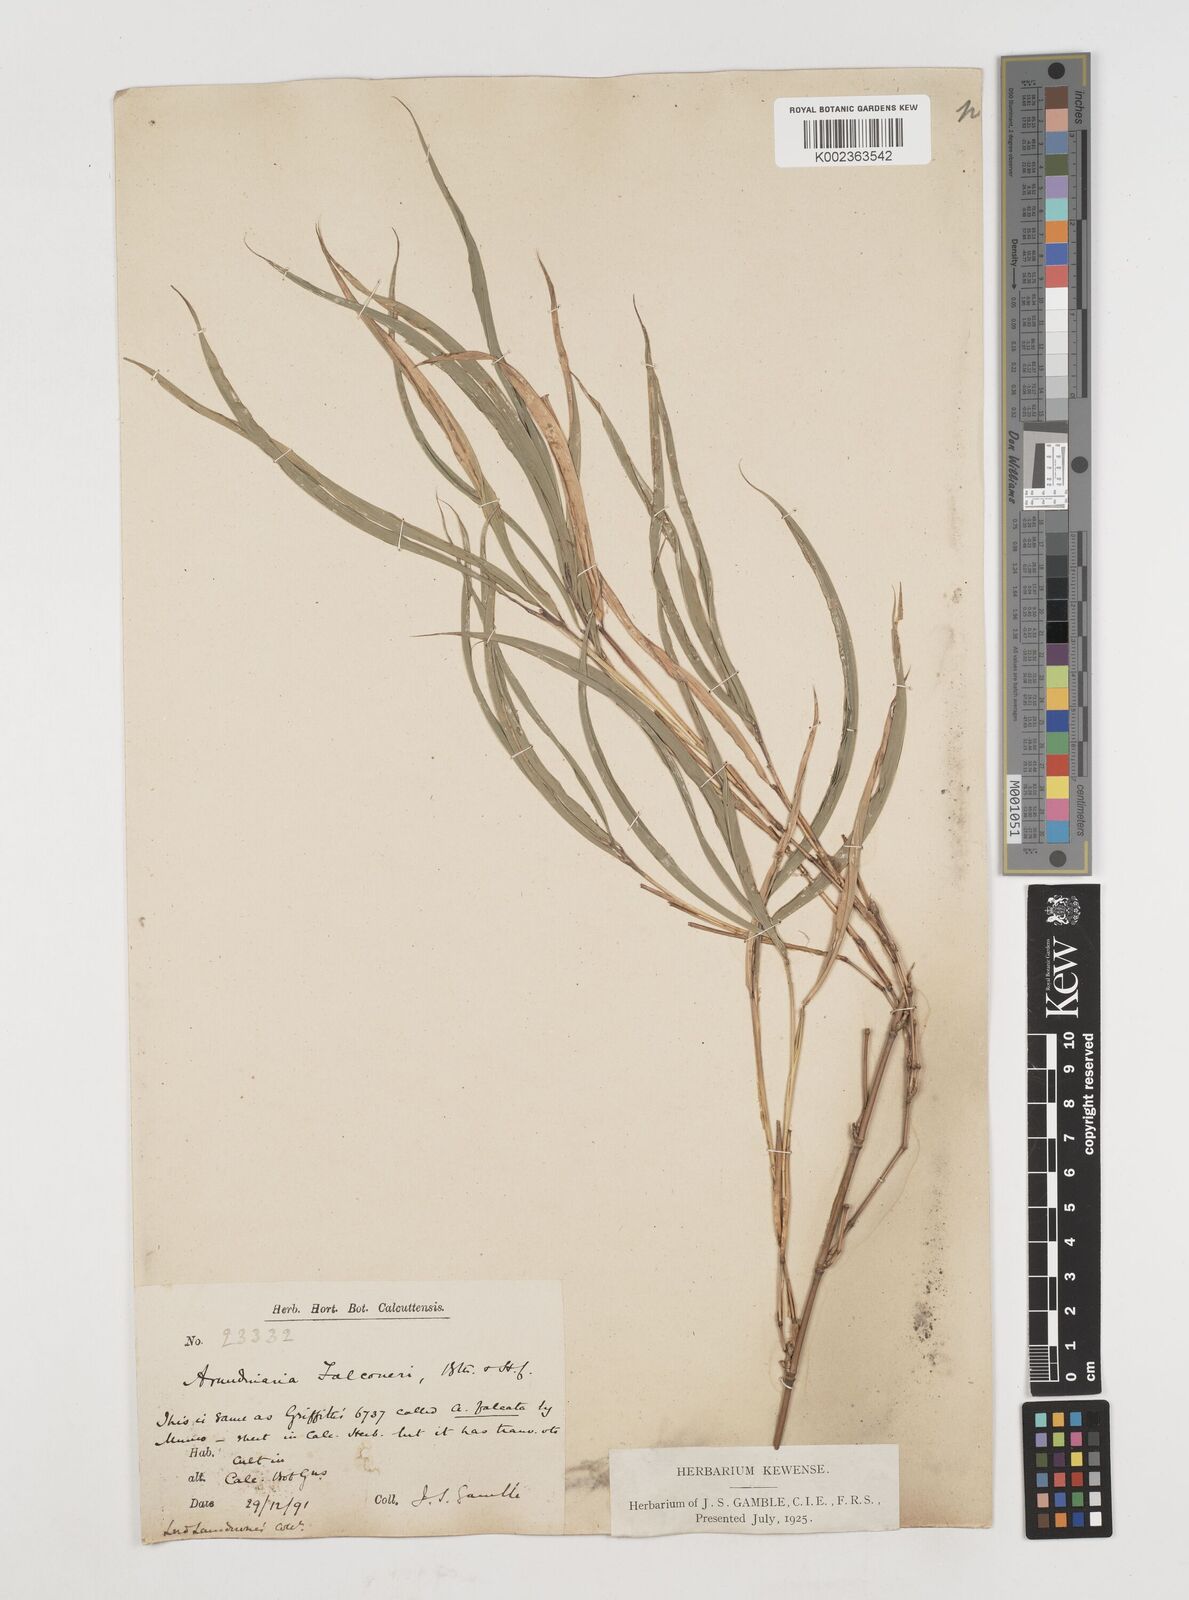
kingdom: Plantae
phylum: Tracheophyta
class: Liliopsida
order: Poales
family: Poaceae
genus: Himalayacalamus
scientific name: Himalayacalamus falconeri
